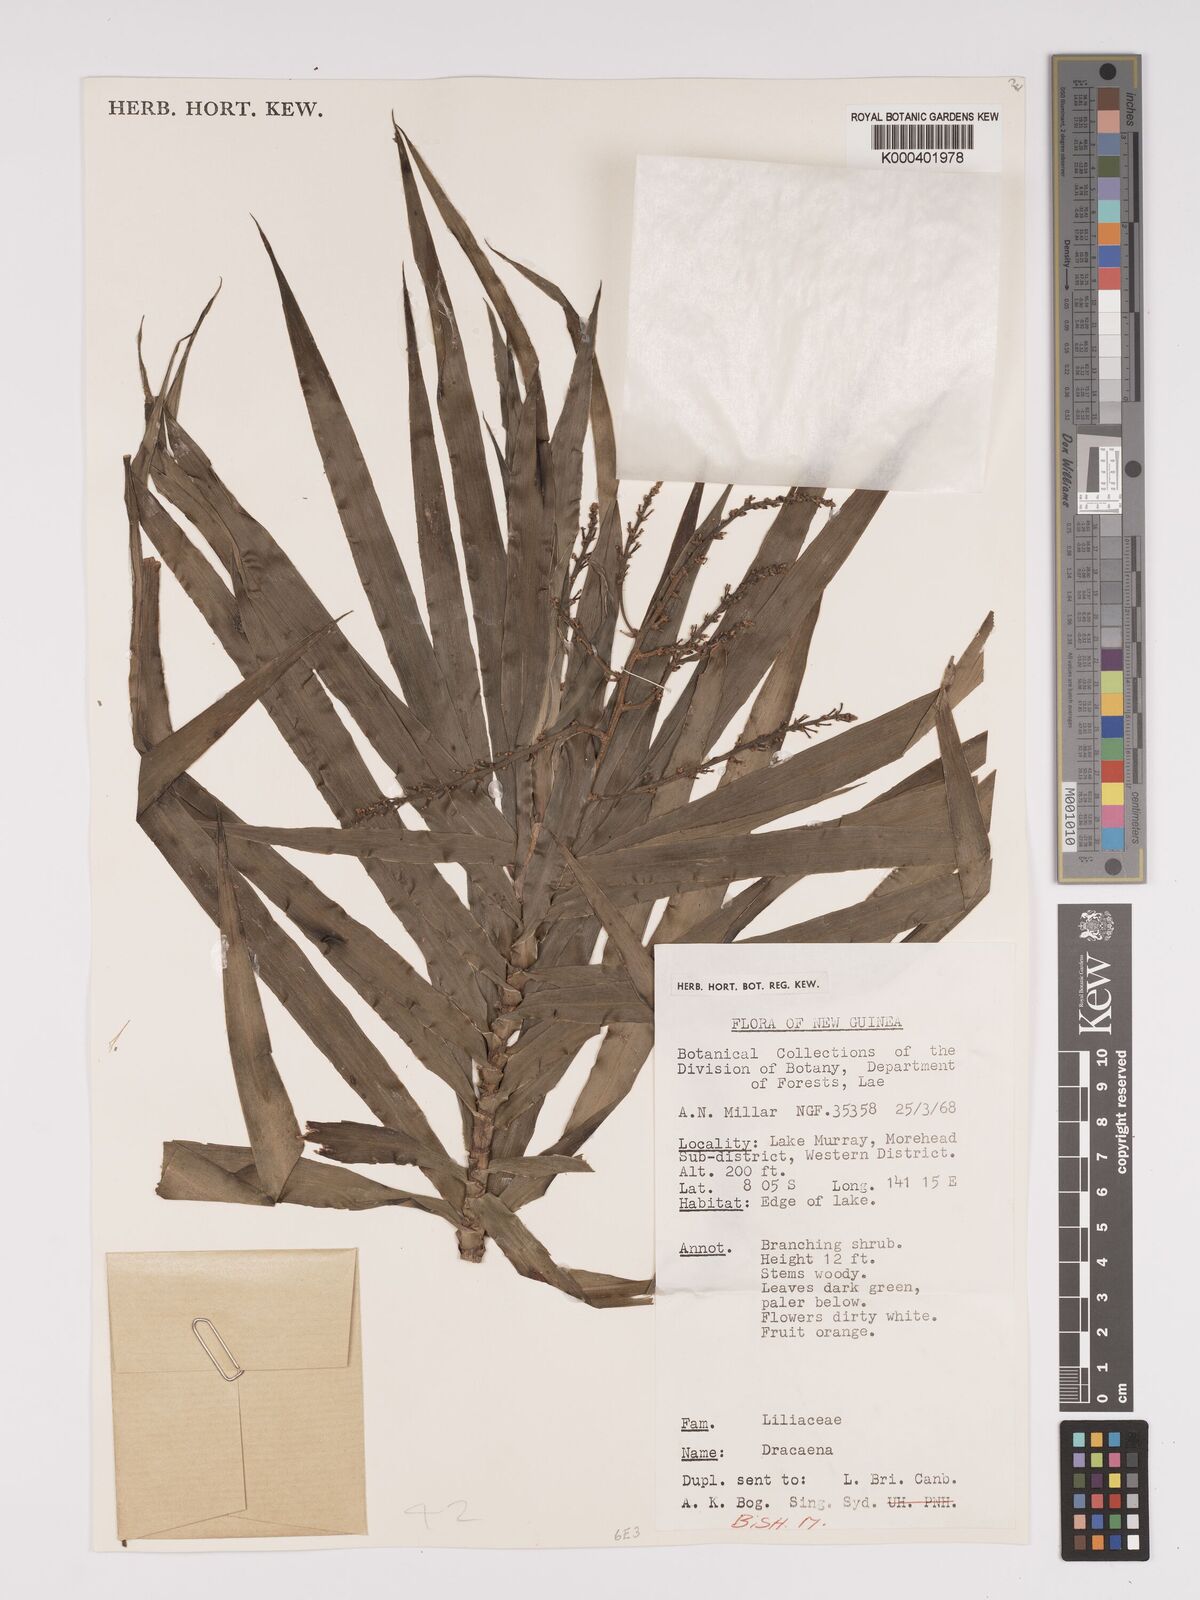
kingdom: Plantae
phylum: Tracheophyta
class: Liliopsida
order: Asparagales
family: Asparagaceae
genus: Dracaena
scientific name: Dracaena angustifolia
